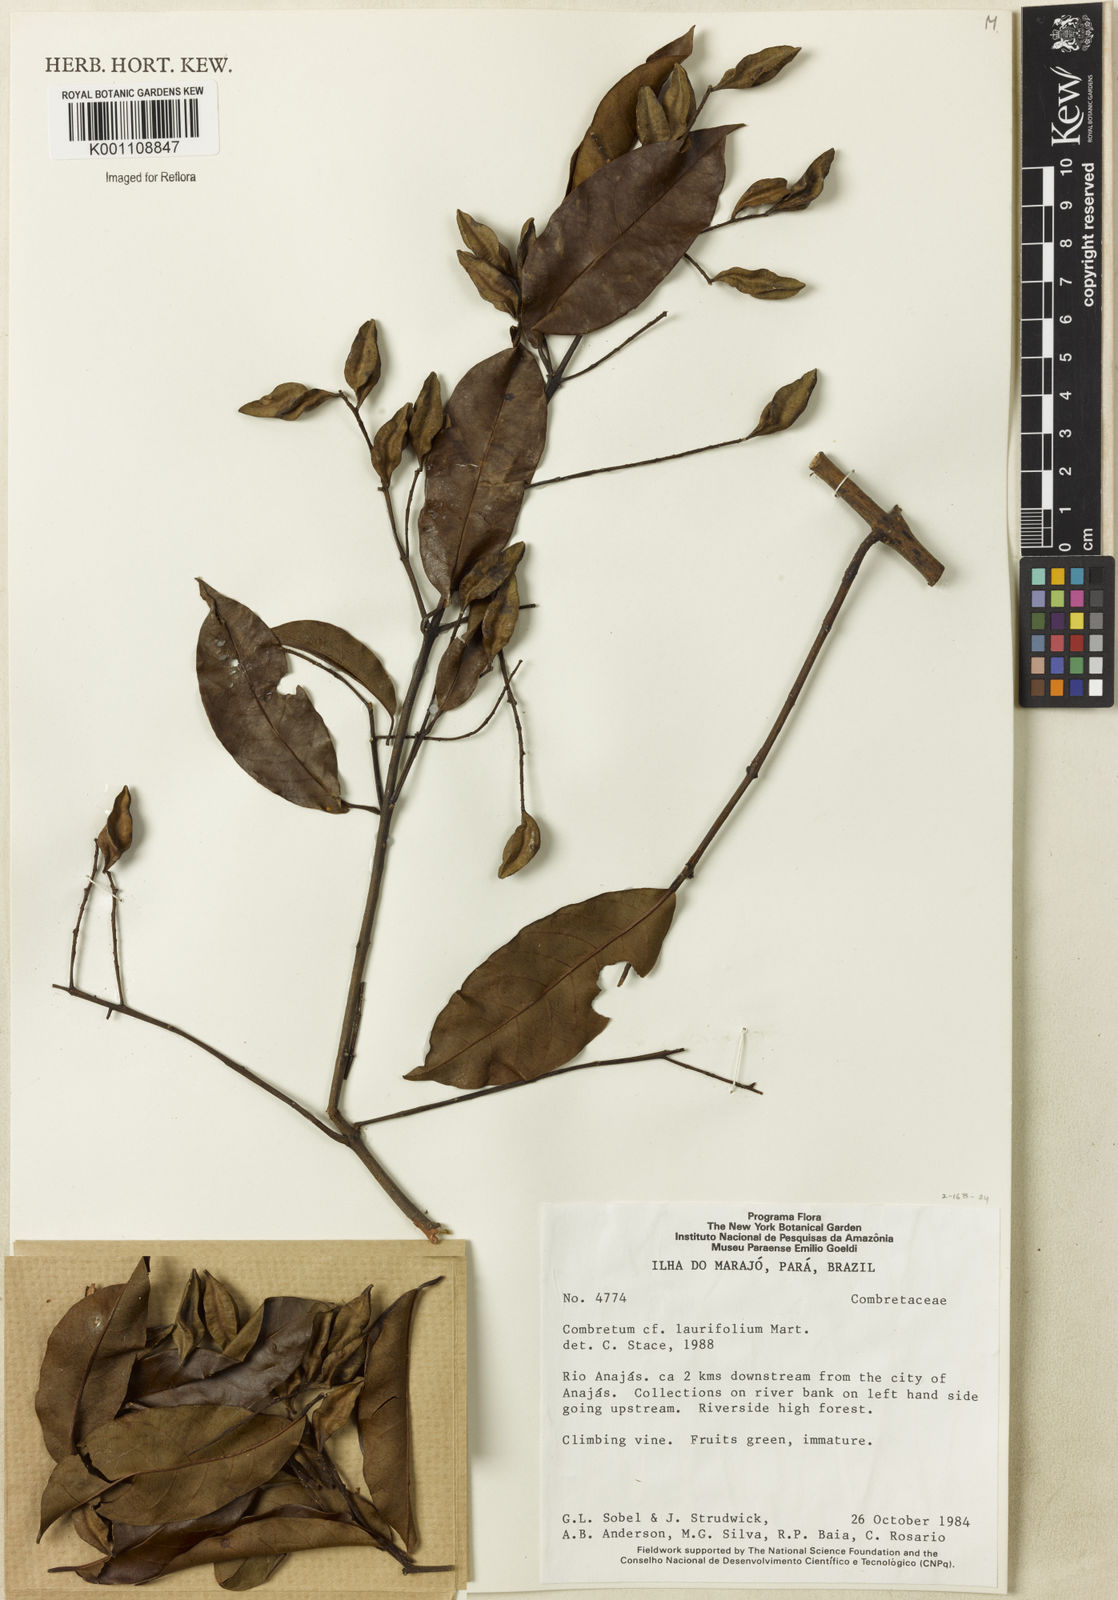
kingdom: Plantae
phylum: Tracheophyta
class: Magnoliopsida
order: Myrtales
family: Combretaceae
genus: Combretum
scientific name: Combretum
